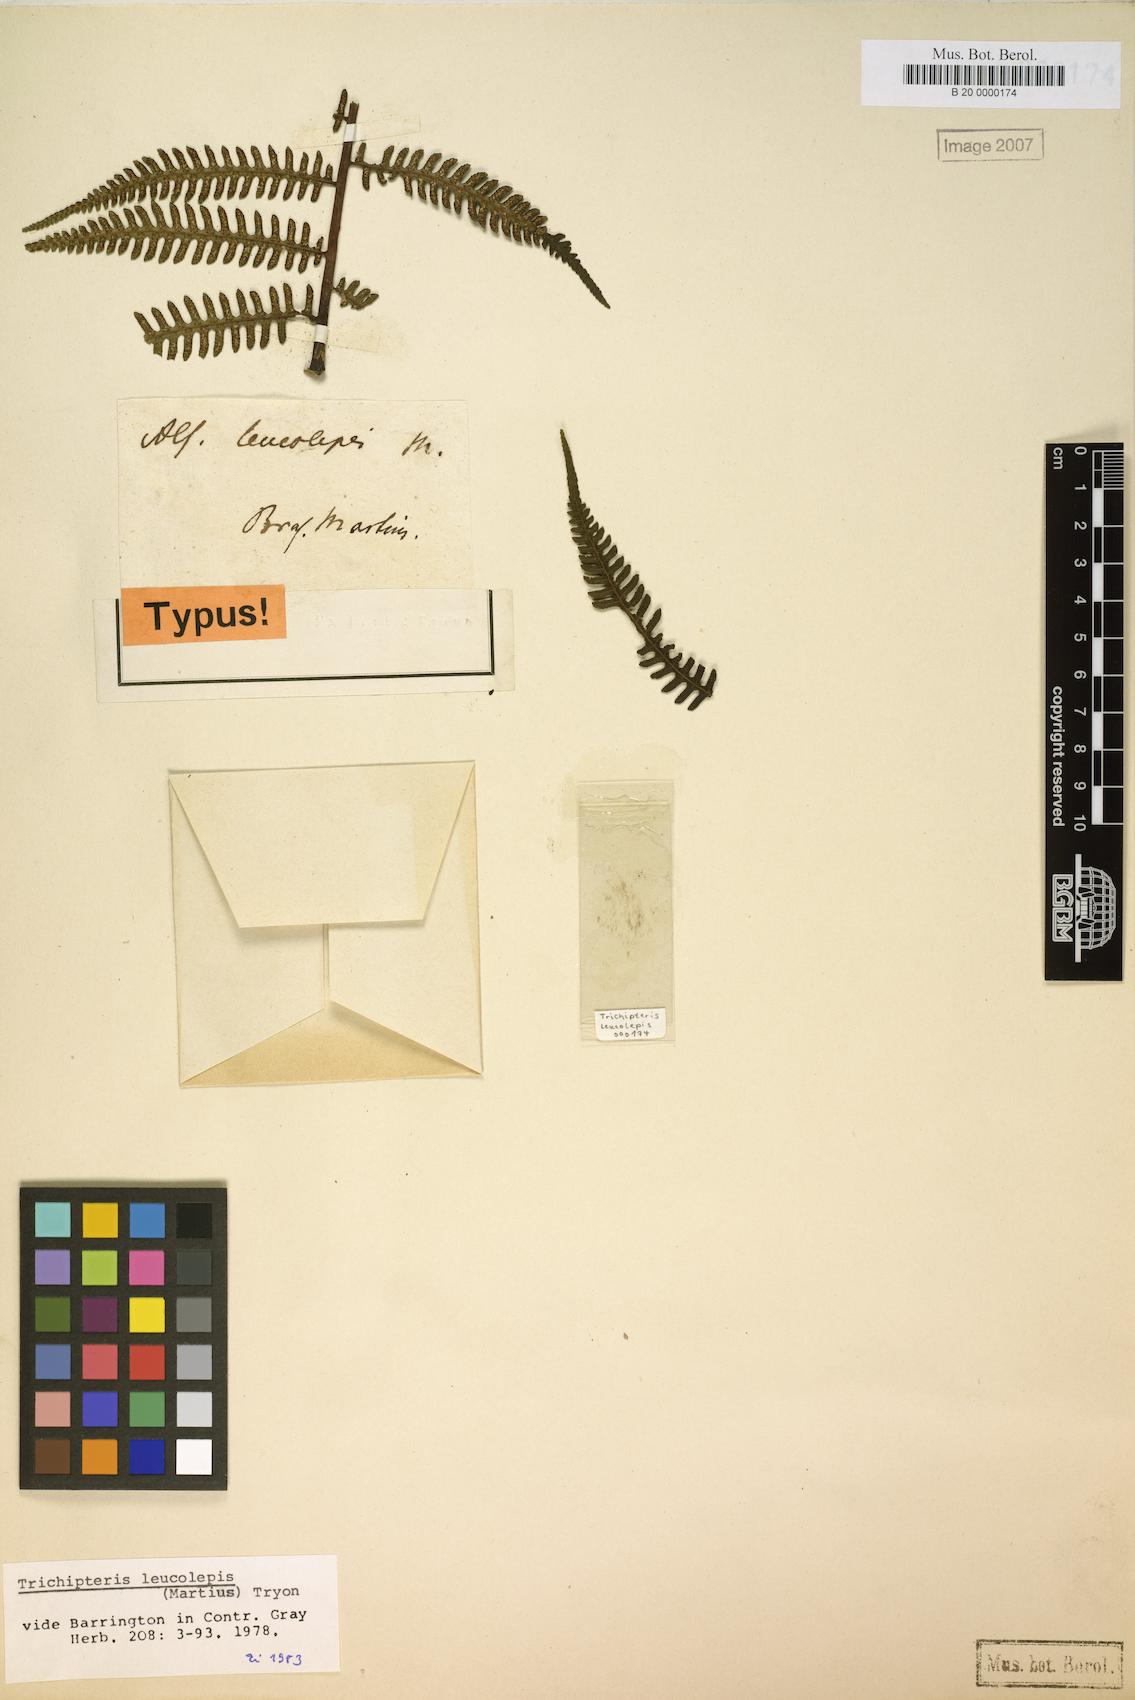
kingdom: Plantae
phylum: Tracheophyta
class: Polypodiopsida
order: Cyatheales
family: Cyatheaceae
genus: Cyathea
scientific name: Cyathea axillaris
